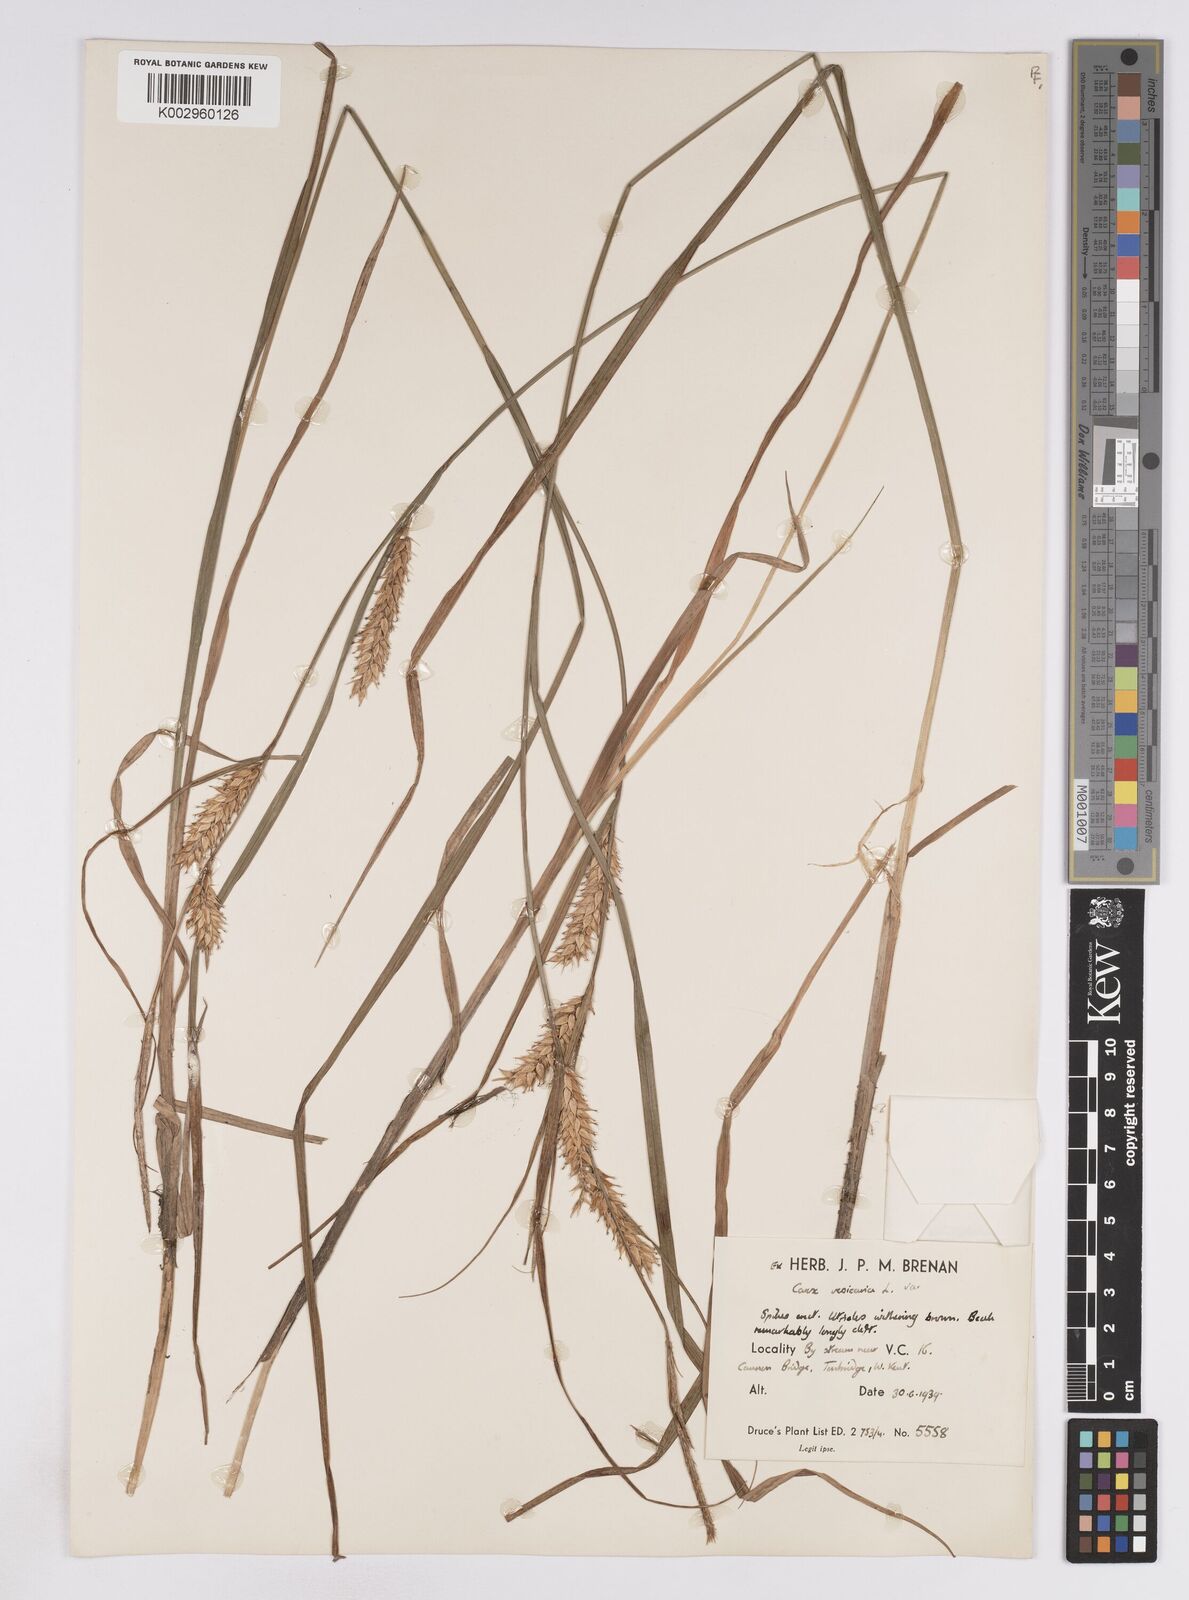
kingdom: Plantae
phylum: Tracheophyta
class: Liliopsida
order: Poales
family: Cyperaceae
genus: Carex
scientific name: Carex vesicaria
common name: Bladder-sedge
